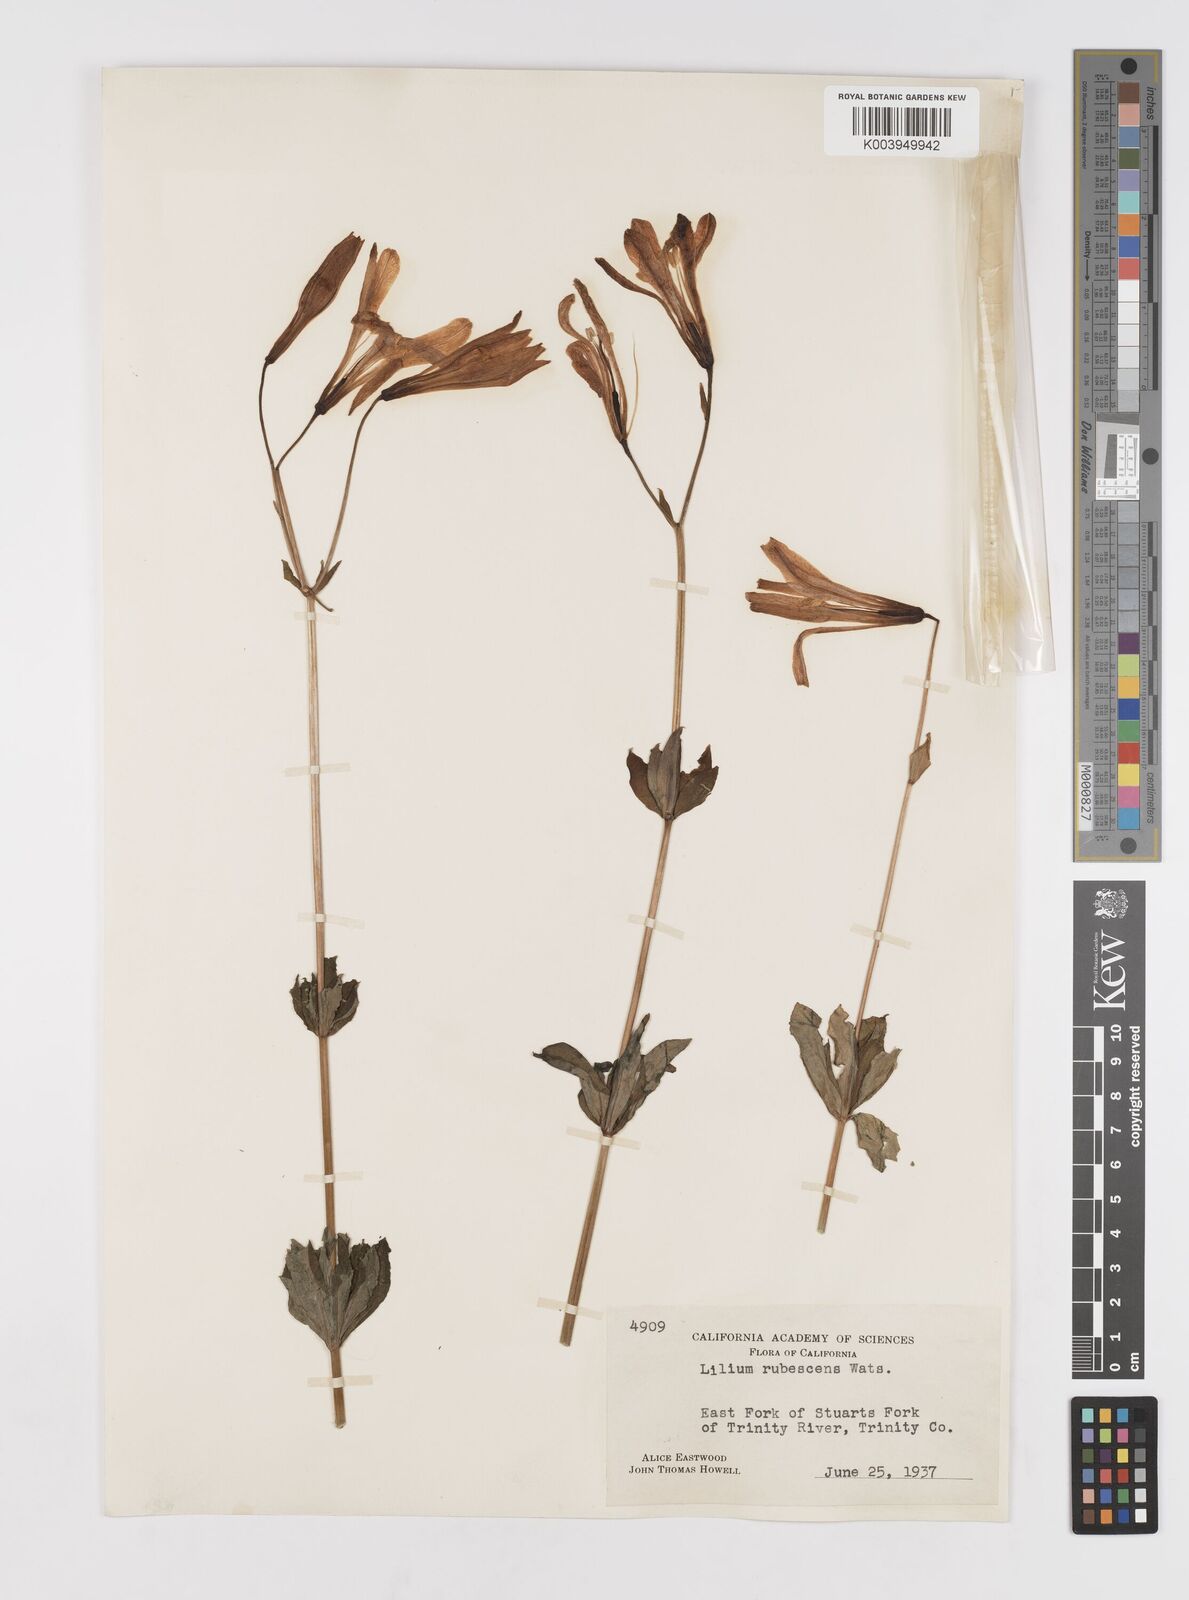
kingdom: Plantae
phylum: Tracheophyta
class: Liliopsida
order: Liliales
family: Liliaceae
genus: Lilium
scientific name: Lilium washingtonianum
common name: Washington lily
